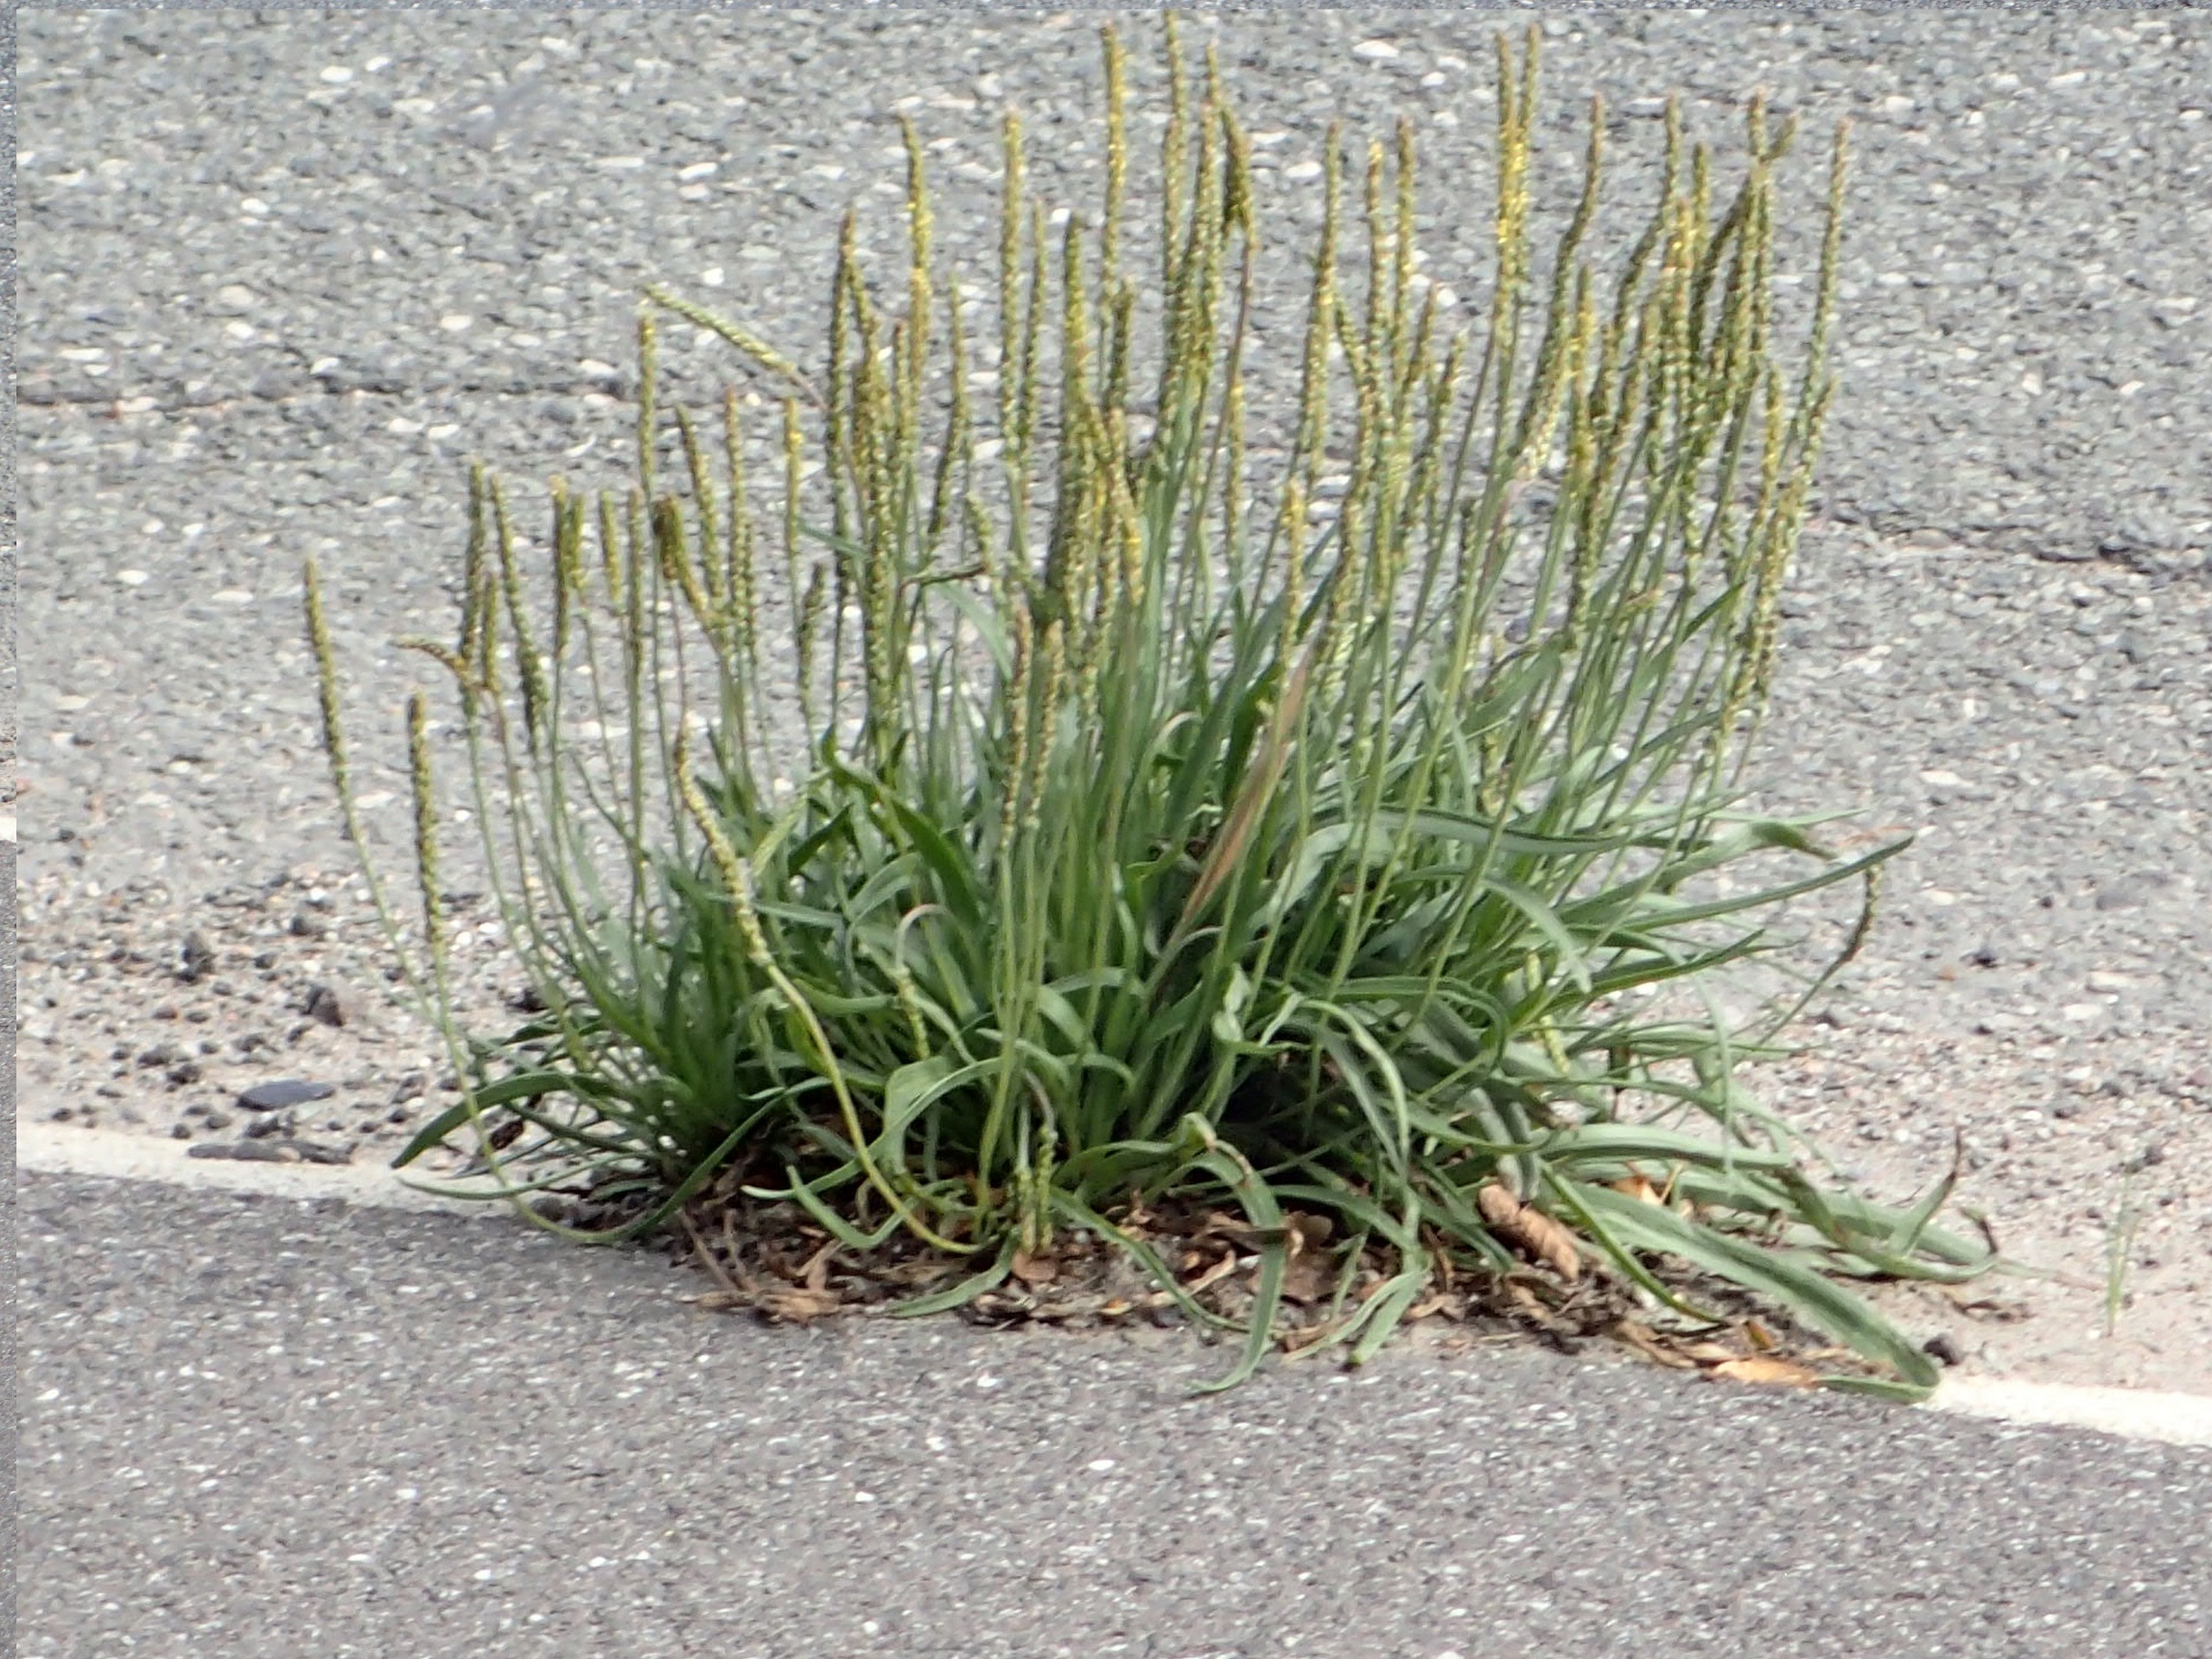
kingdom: Plantae
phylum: Tracheophyta
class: Magnoliopsida
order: Lamiales
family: Plantaginaceae
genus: Plantago
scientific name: Plantago maritima
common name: Strand-vejbred
